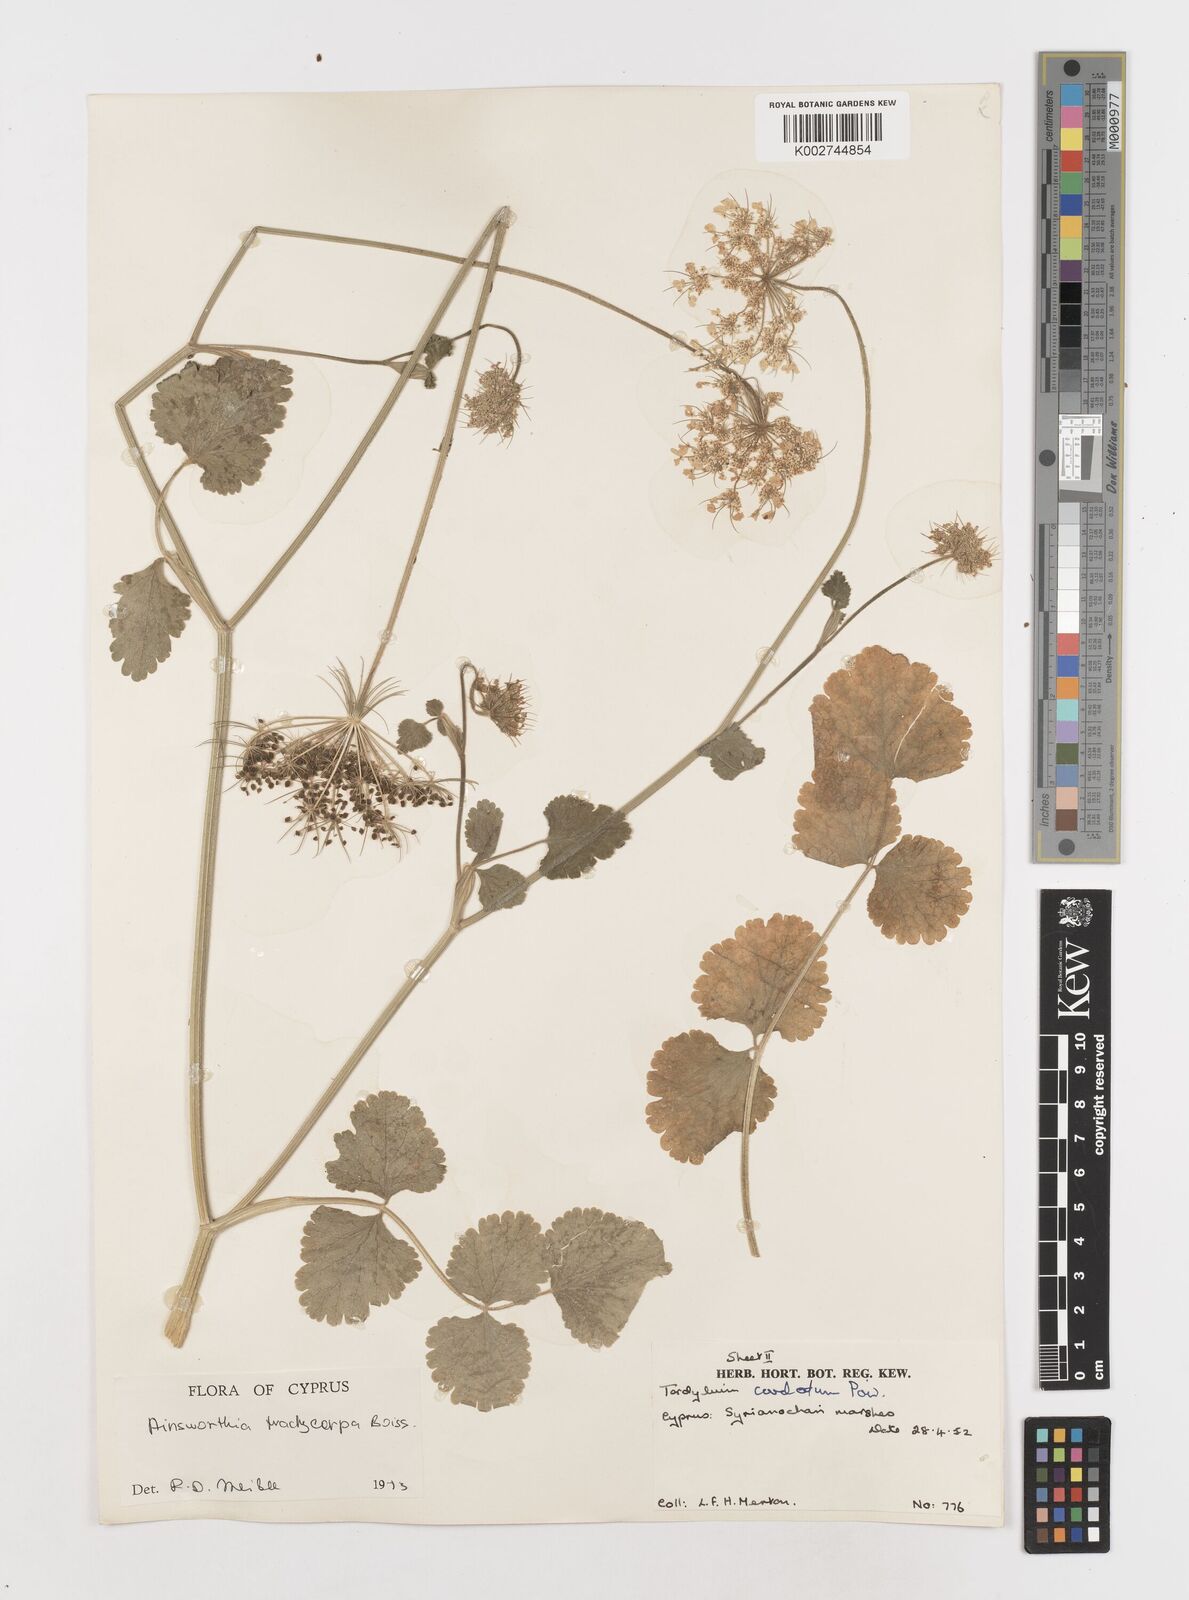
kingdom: Plantae
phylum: Tracheophyta
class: Magnoliopsida
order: Apiales
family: Apiaceae
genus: Ainsworthia
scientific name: Ainsworthia cordata
